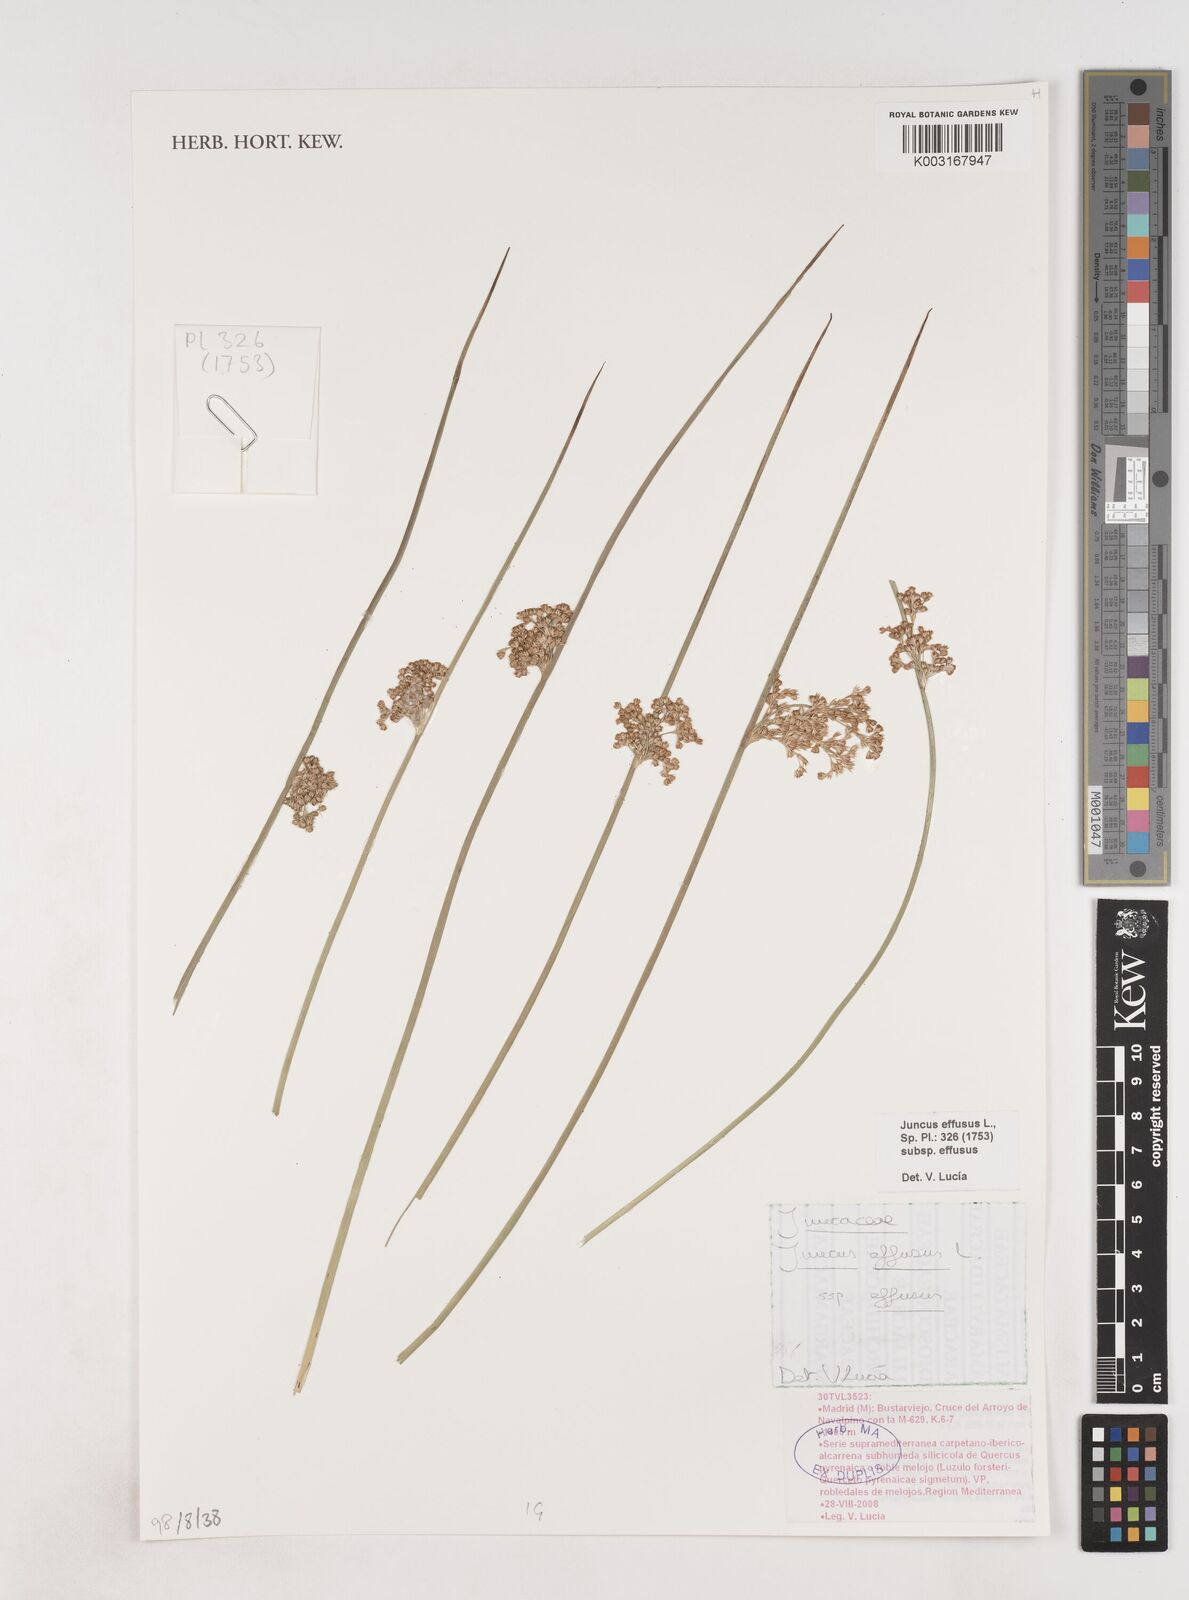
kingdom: Plantae
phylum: Tracheophyta
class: Liliopsida
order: Poales
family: Juncaceae
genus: Juncus
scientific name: Juncus effusus
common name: Soft rush
